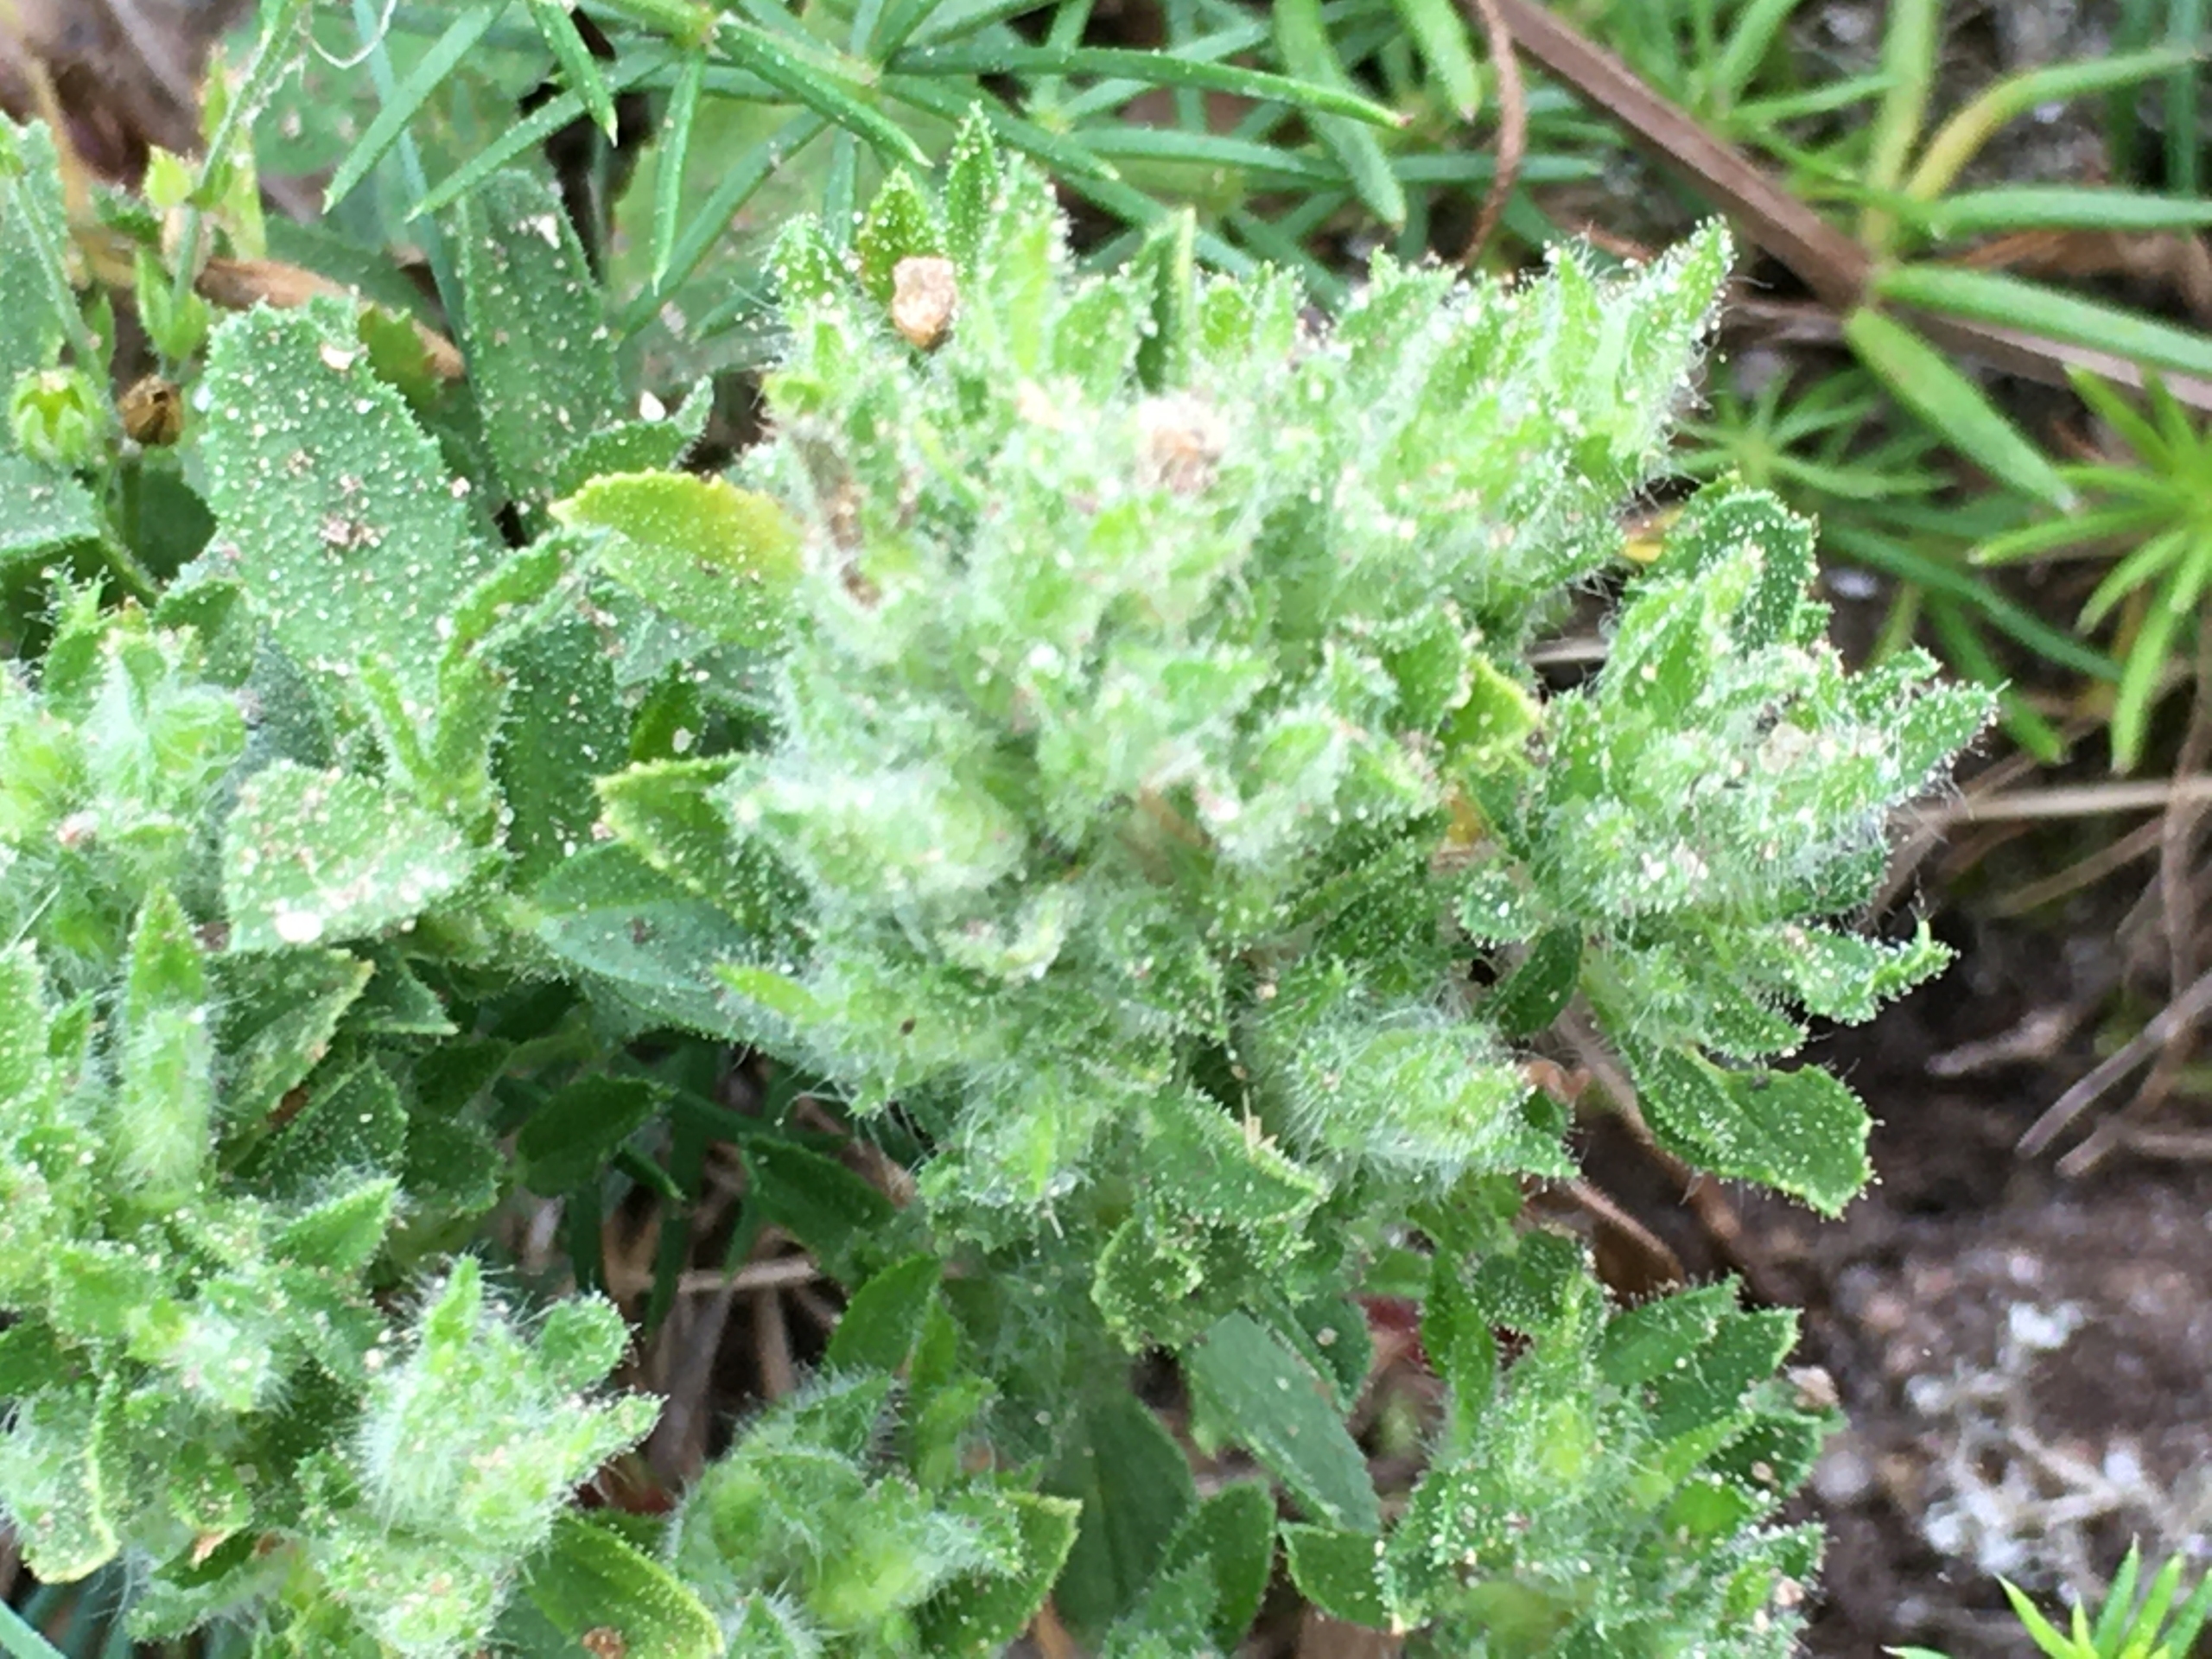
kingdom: Animalia
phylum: Arthropoda
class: Arachnida
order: Trombidiformes
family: Eriophyidae
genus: Aceria
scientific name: Aceria ononidis
